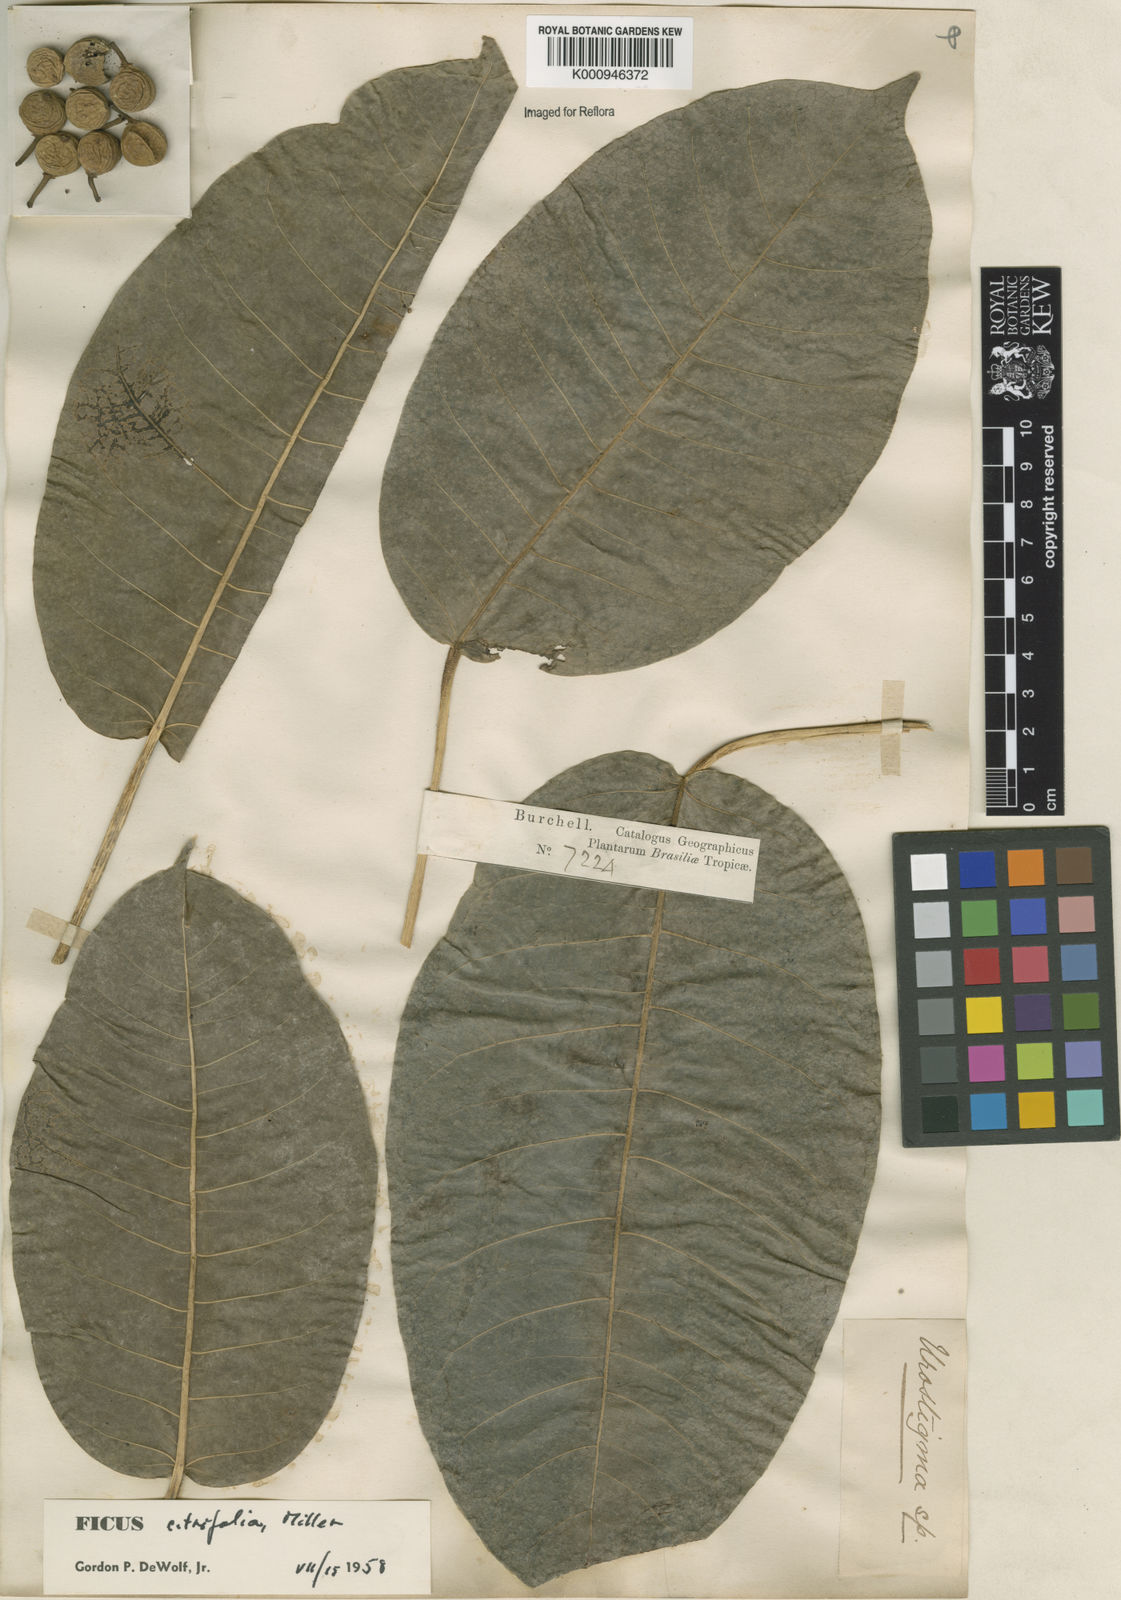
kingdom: Plantae
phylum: Tracheophyta
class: Magnoliopsida
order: Rosales
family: Moraceae
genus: Ficus
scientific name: Ficus citrifolia
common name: Strangler fig
